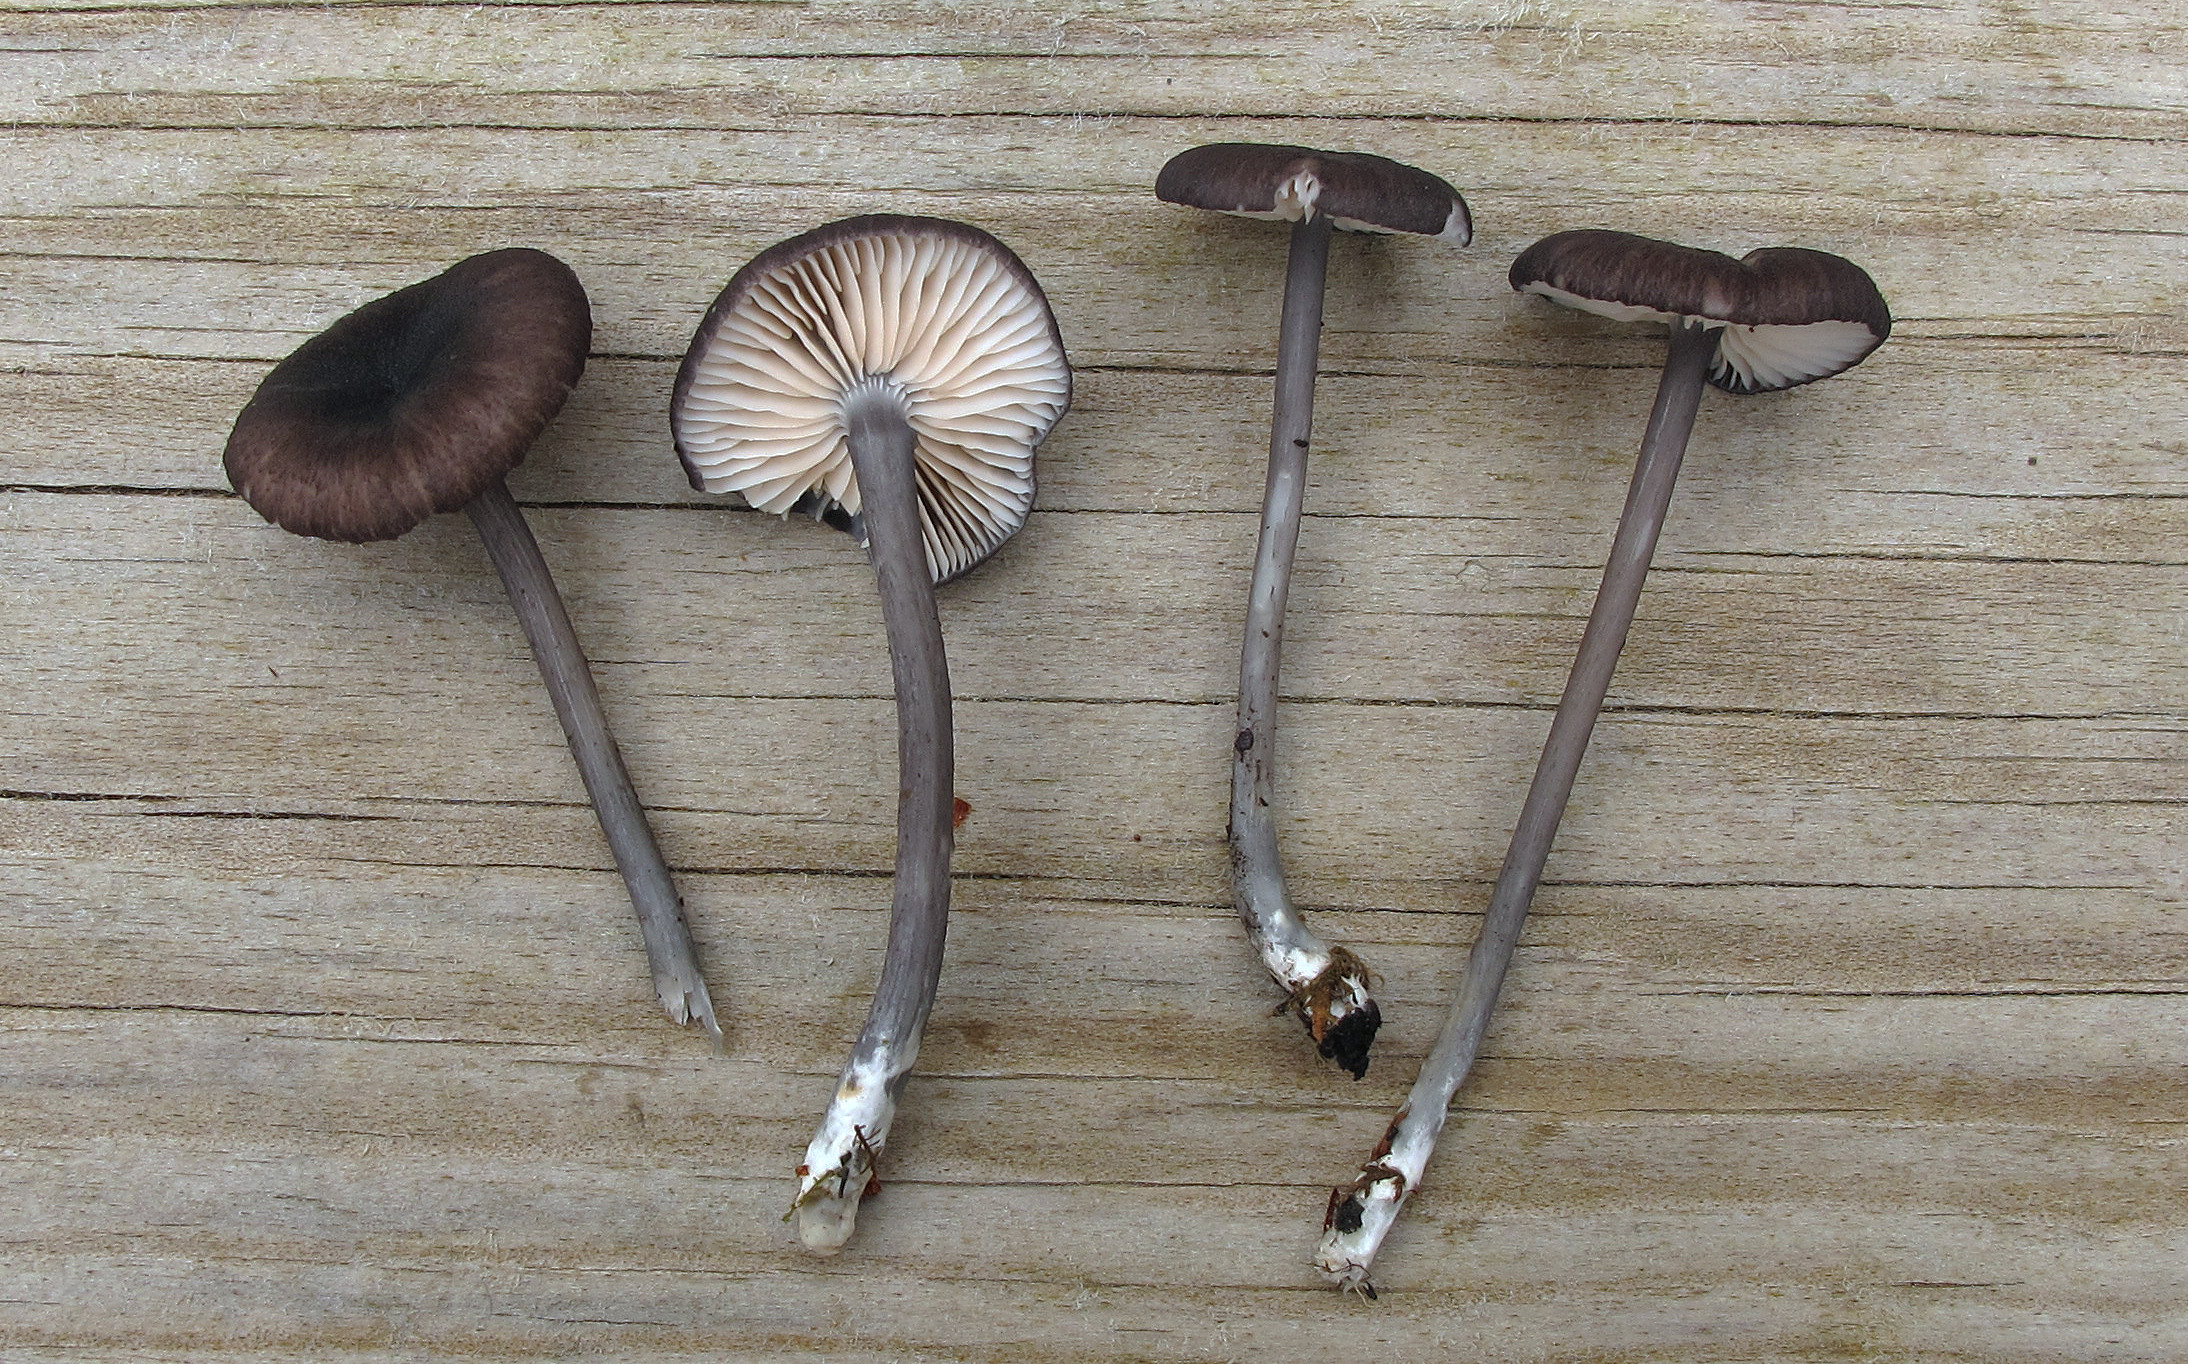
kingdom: Fungi
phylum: Basidiomycota
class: Agaricomycetes
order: Agaricales
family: Entolomataceae
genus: Entoloma
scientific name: Entoloma coracis
